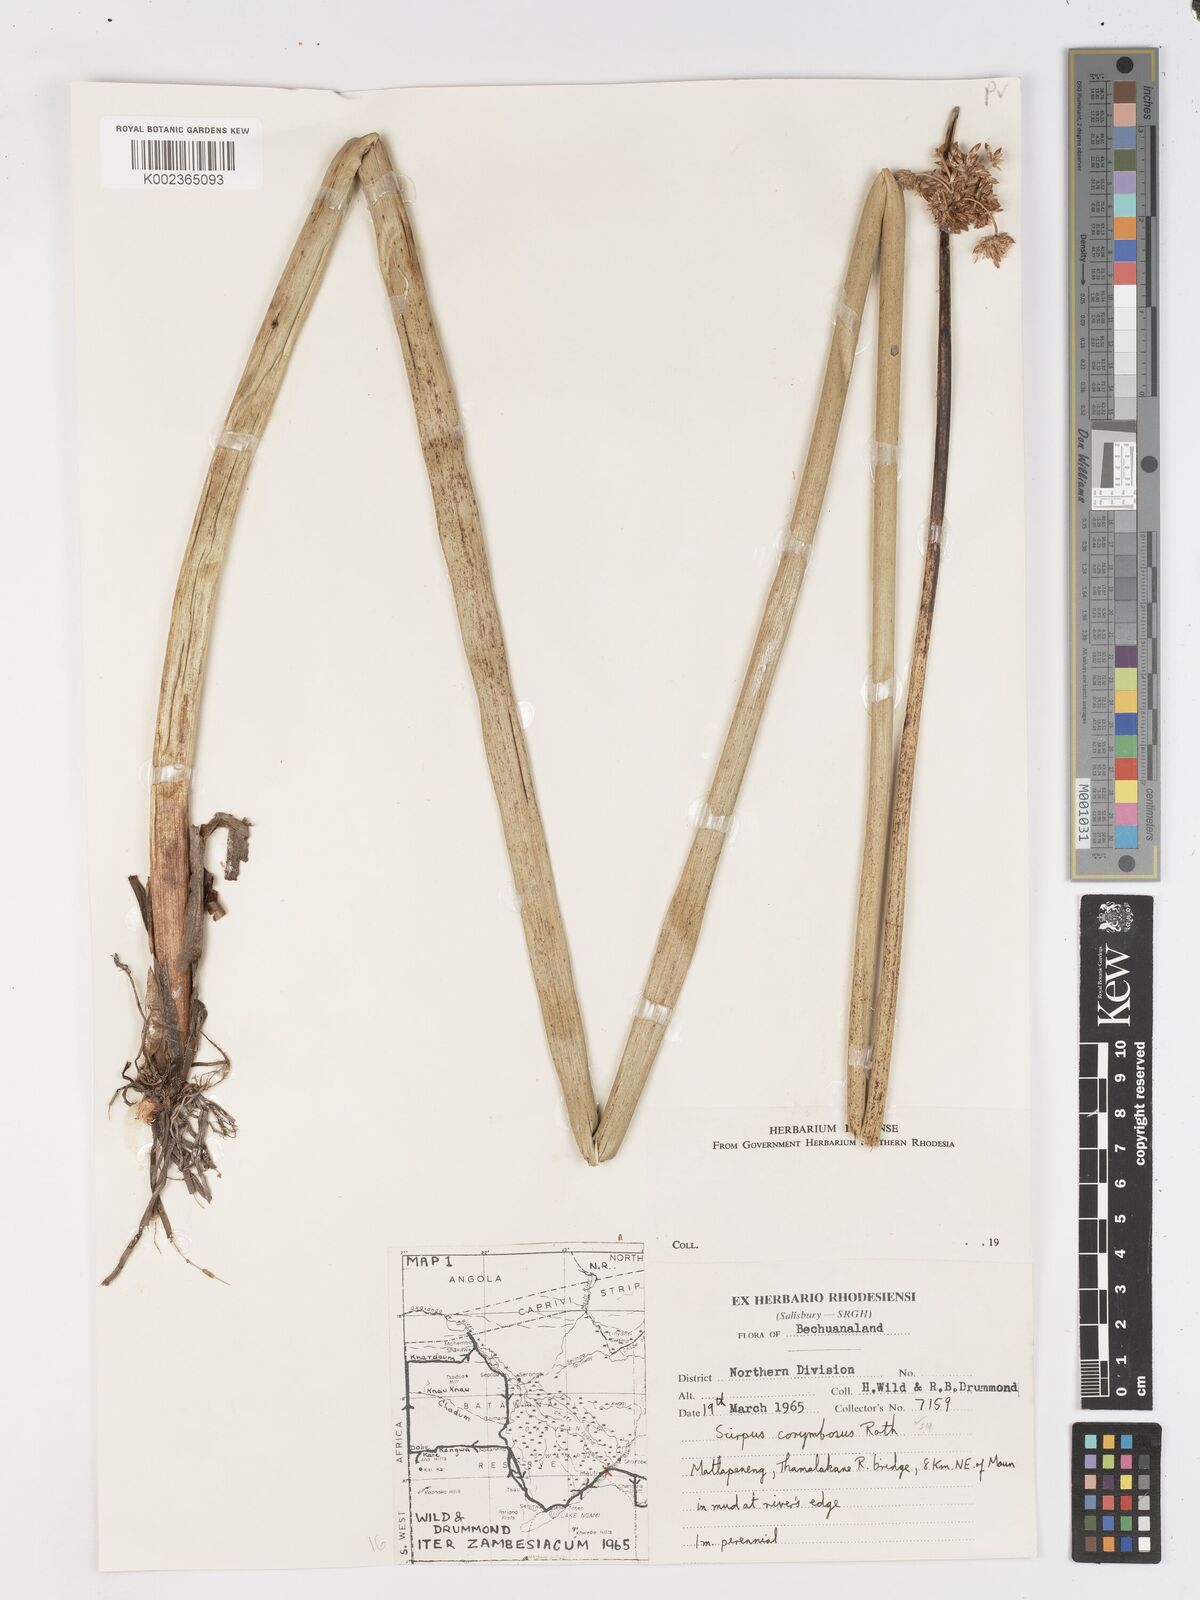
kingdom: Plantae
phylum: Tracheophyta
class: Liliopsida
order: Poales
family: Cyperaceae
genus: Schoenoplectiella
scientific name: Schoenoplectiella brachyceras
